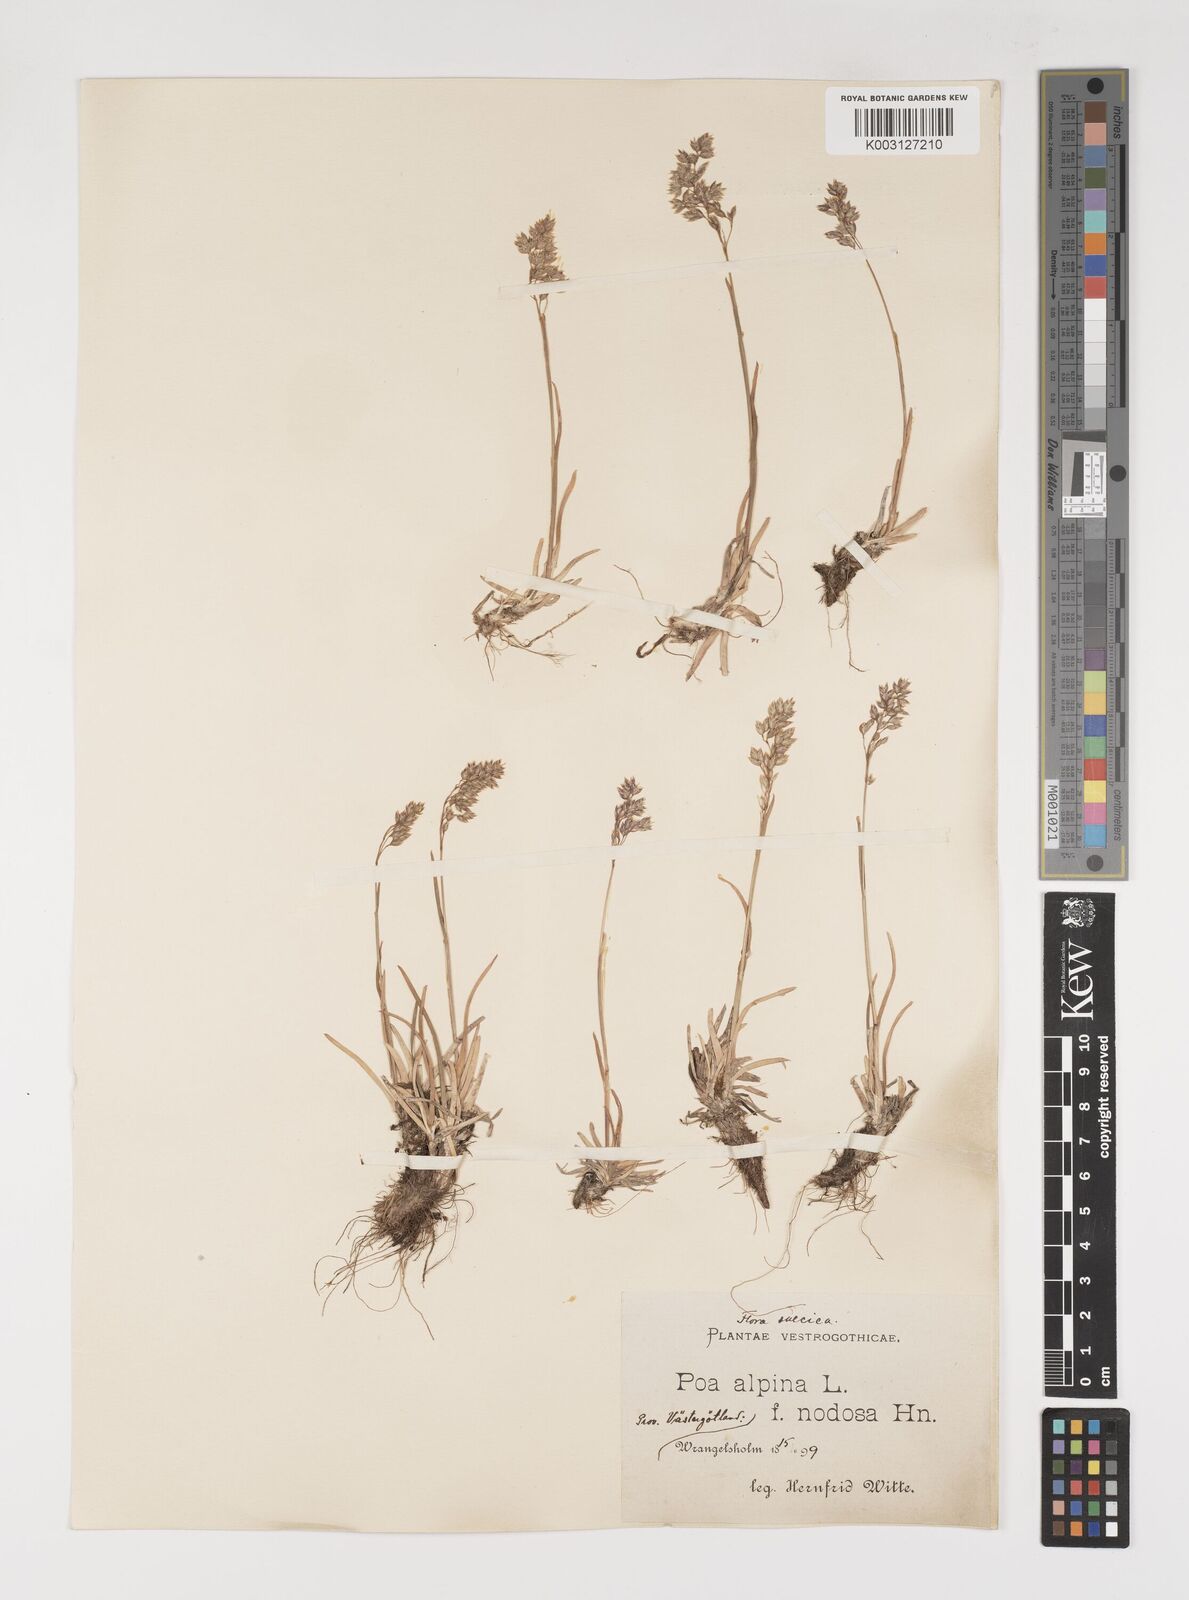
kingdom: Plantae
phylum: Tracheophyta
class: Liliopsida
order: Poales
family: Poaceae
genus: Poa
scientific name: Poa alpina
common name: Alpine bluegrass
